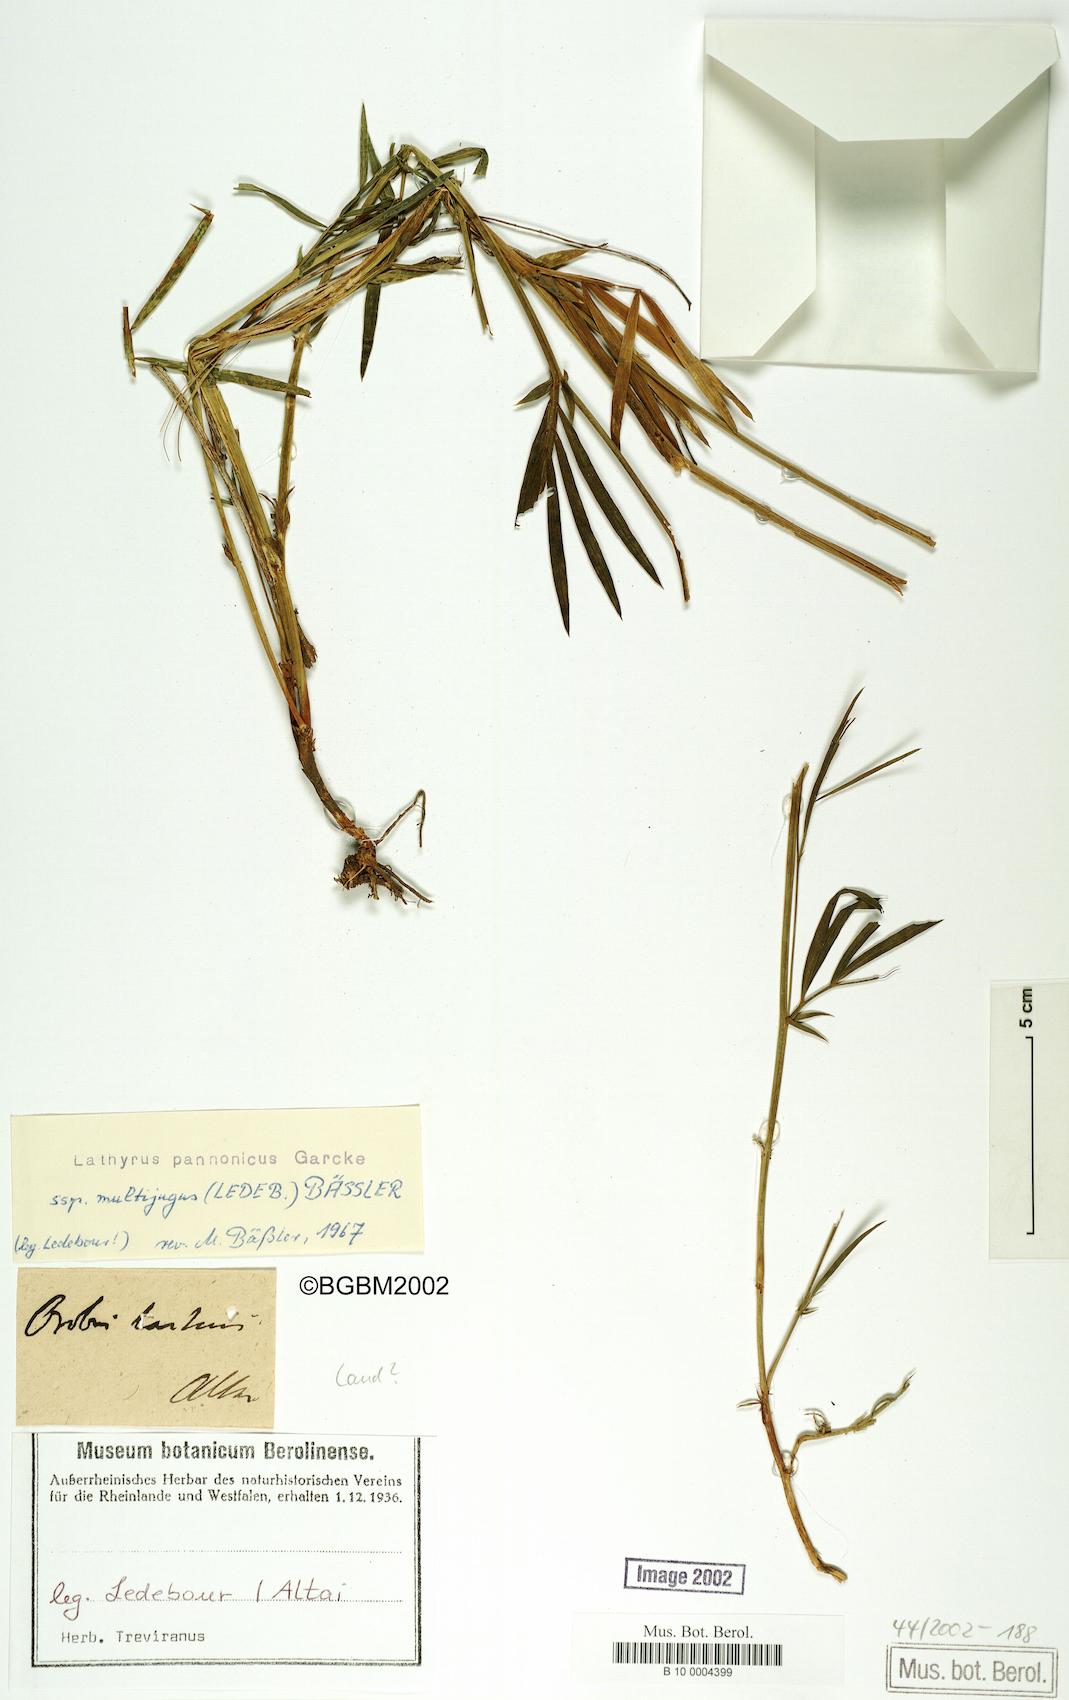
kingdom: Plantae
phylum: Tracheophyta
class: Magnoliopsida
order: Fabales
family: Fabaceae
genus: Lathyrus
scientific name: Lathyrus multijugus
